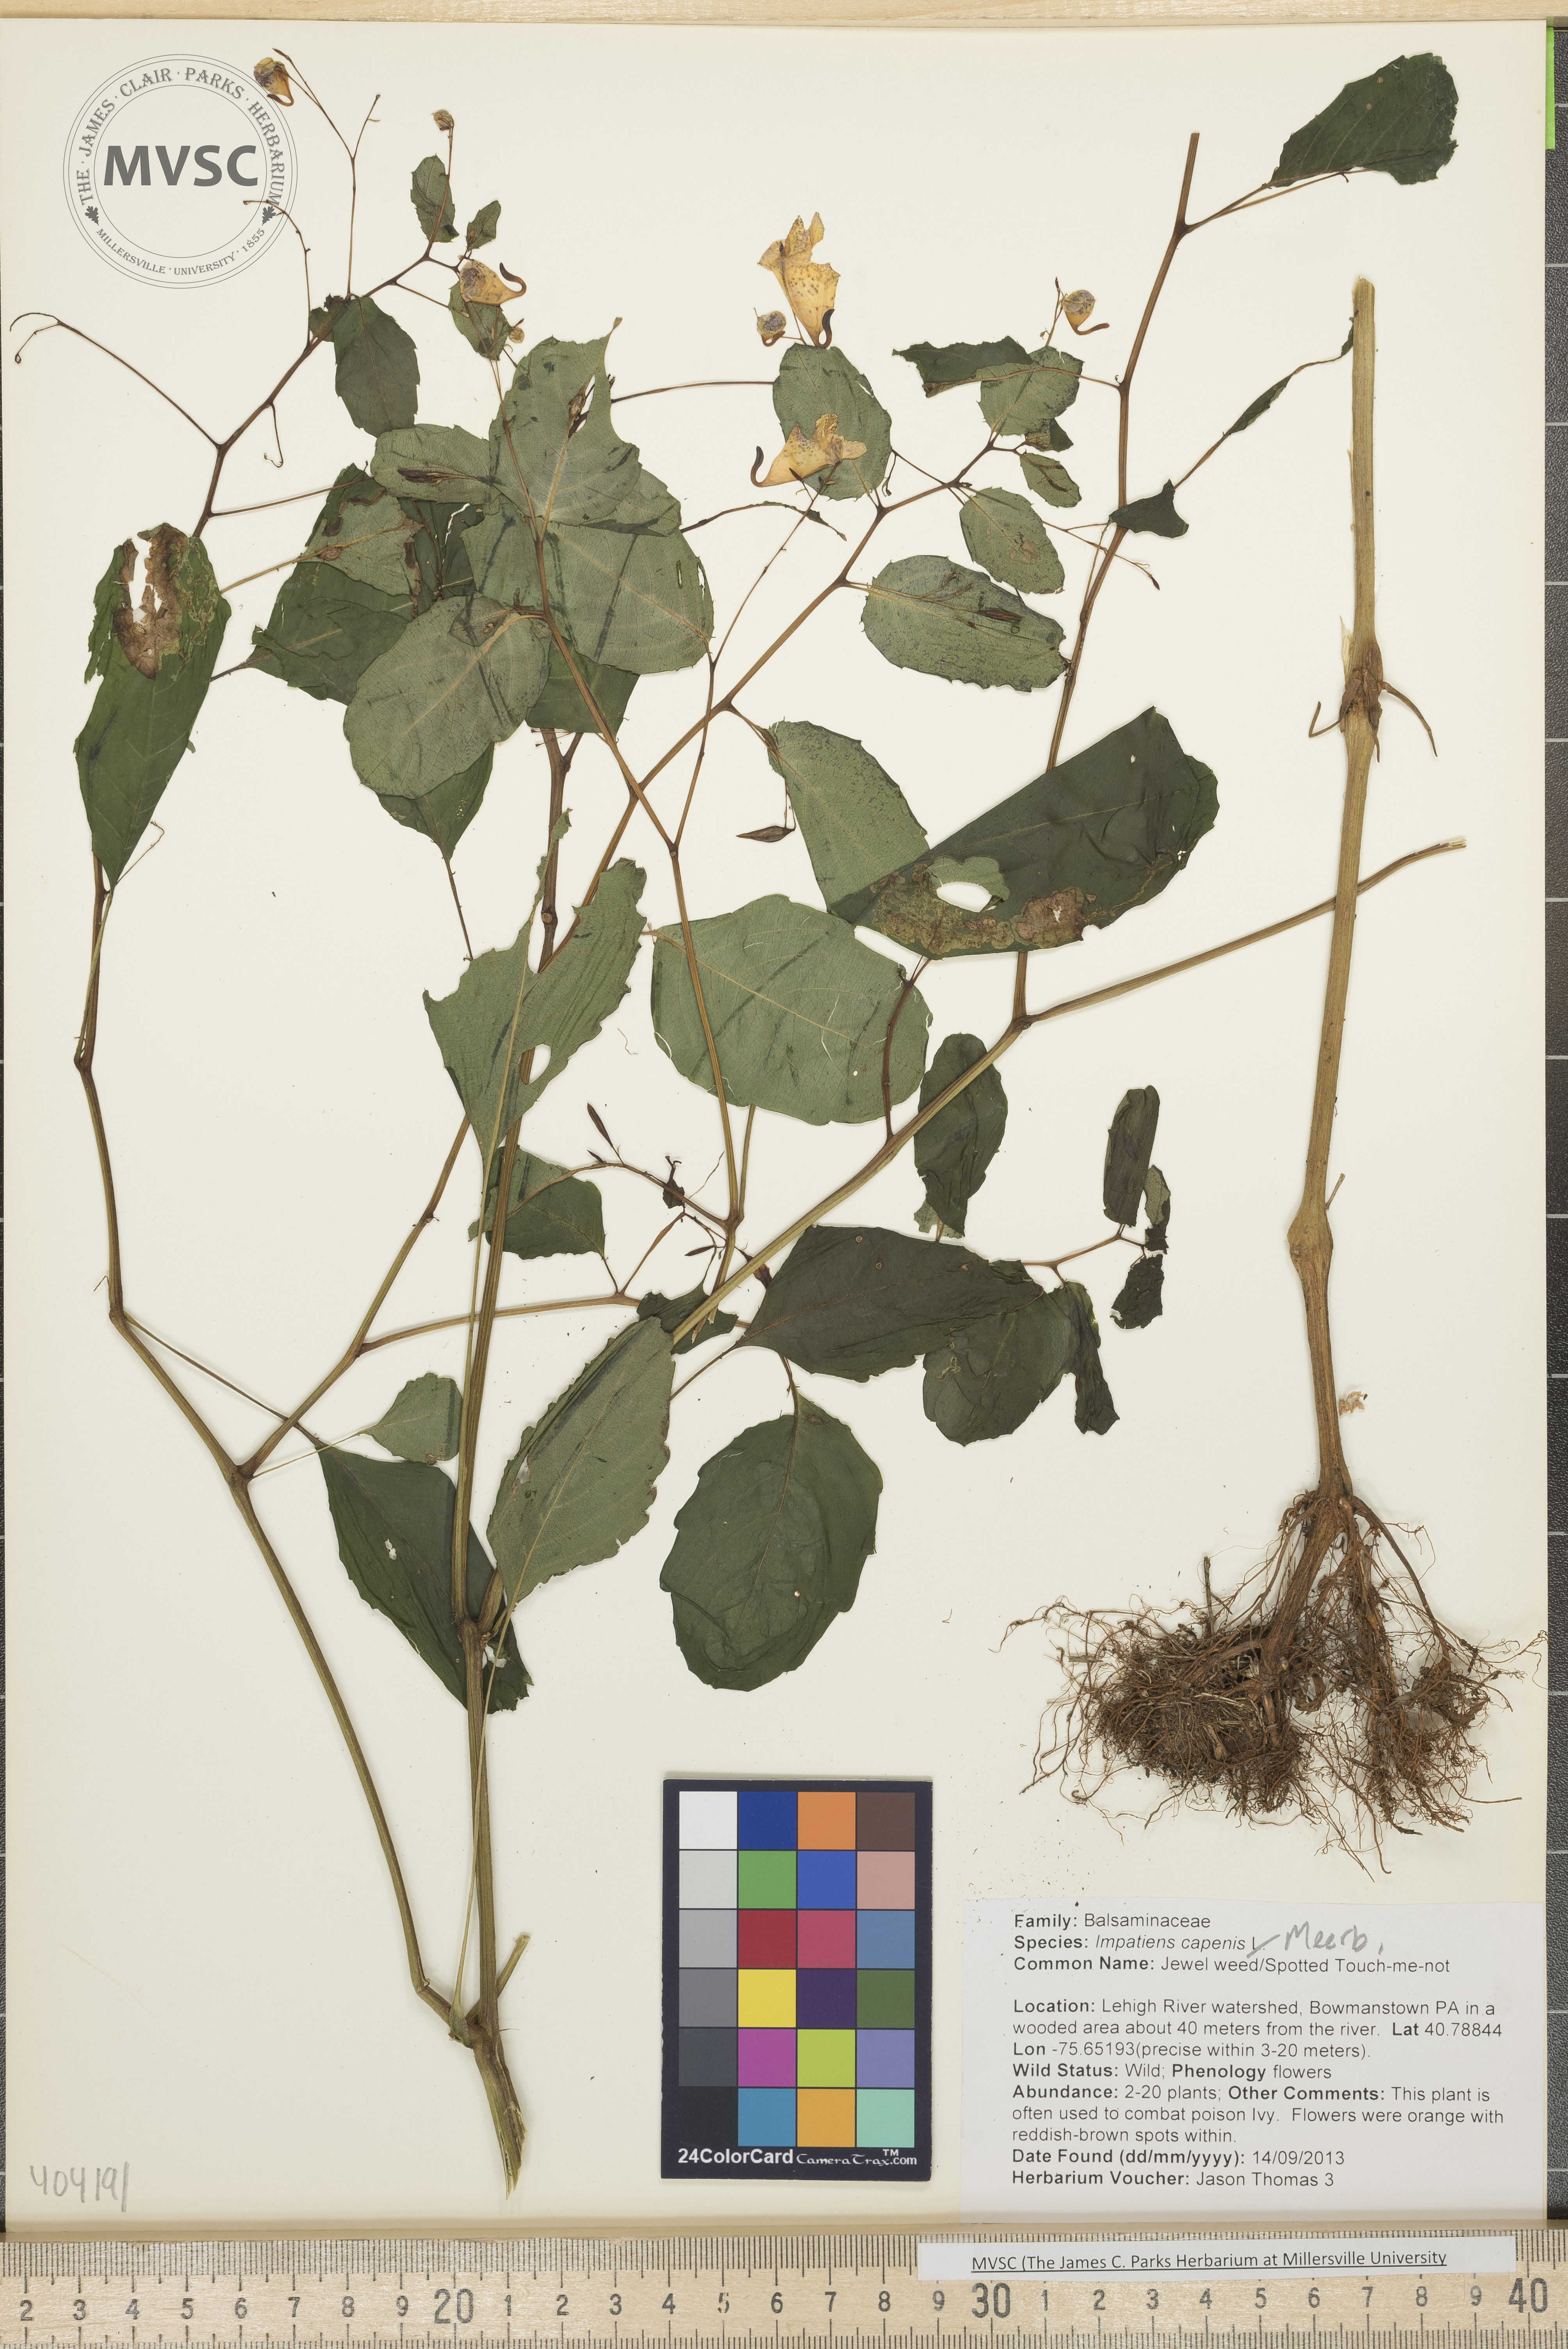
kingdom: Plantae
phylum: Tracheophyta
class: Magnoliopsida
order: Ericales
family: Balsaminaceae
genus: Impatiens
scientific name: Impatiens capensis
